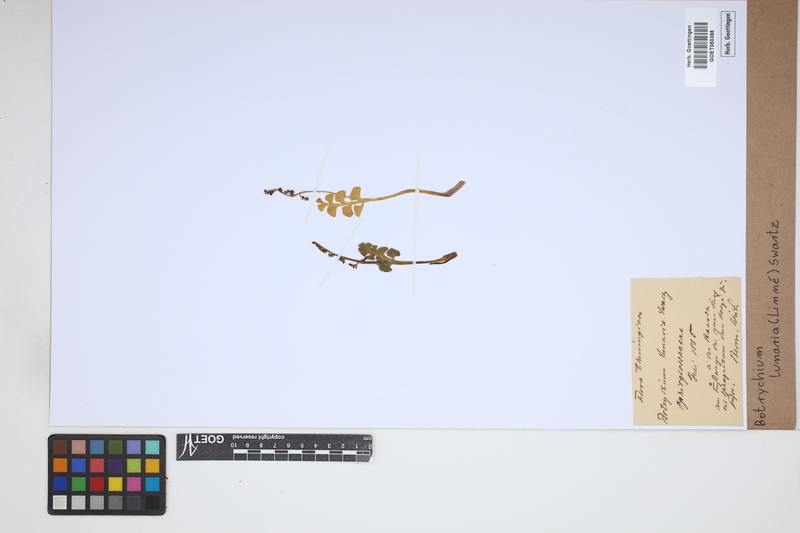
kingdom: Plantae
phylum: Tracheophyta
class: Polypodiopsida
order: Ophioglossales
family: Ophioglossaceae
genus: Botrychium
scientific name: Botrychium lunaria
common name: Moonwort
